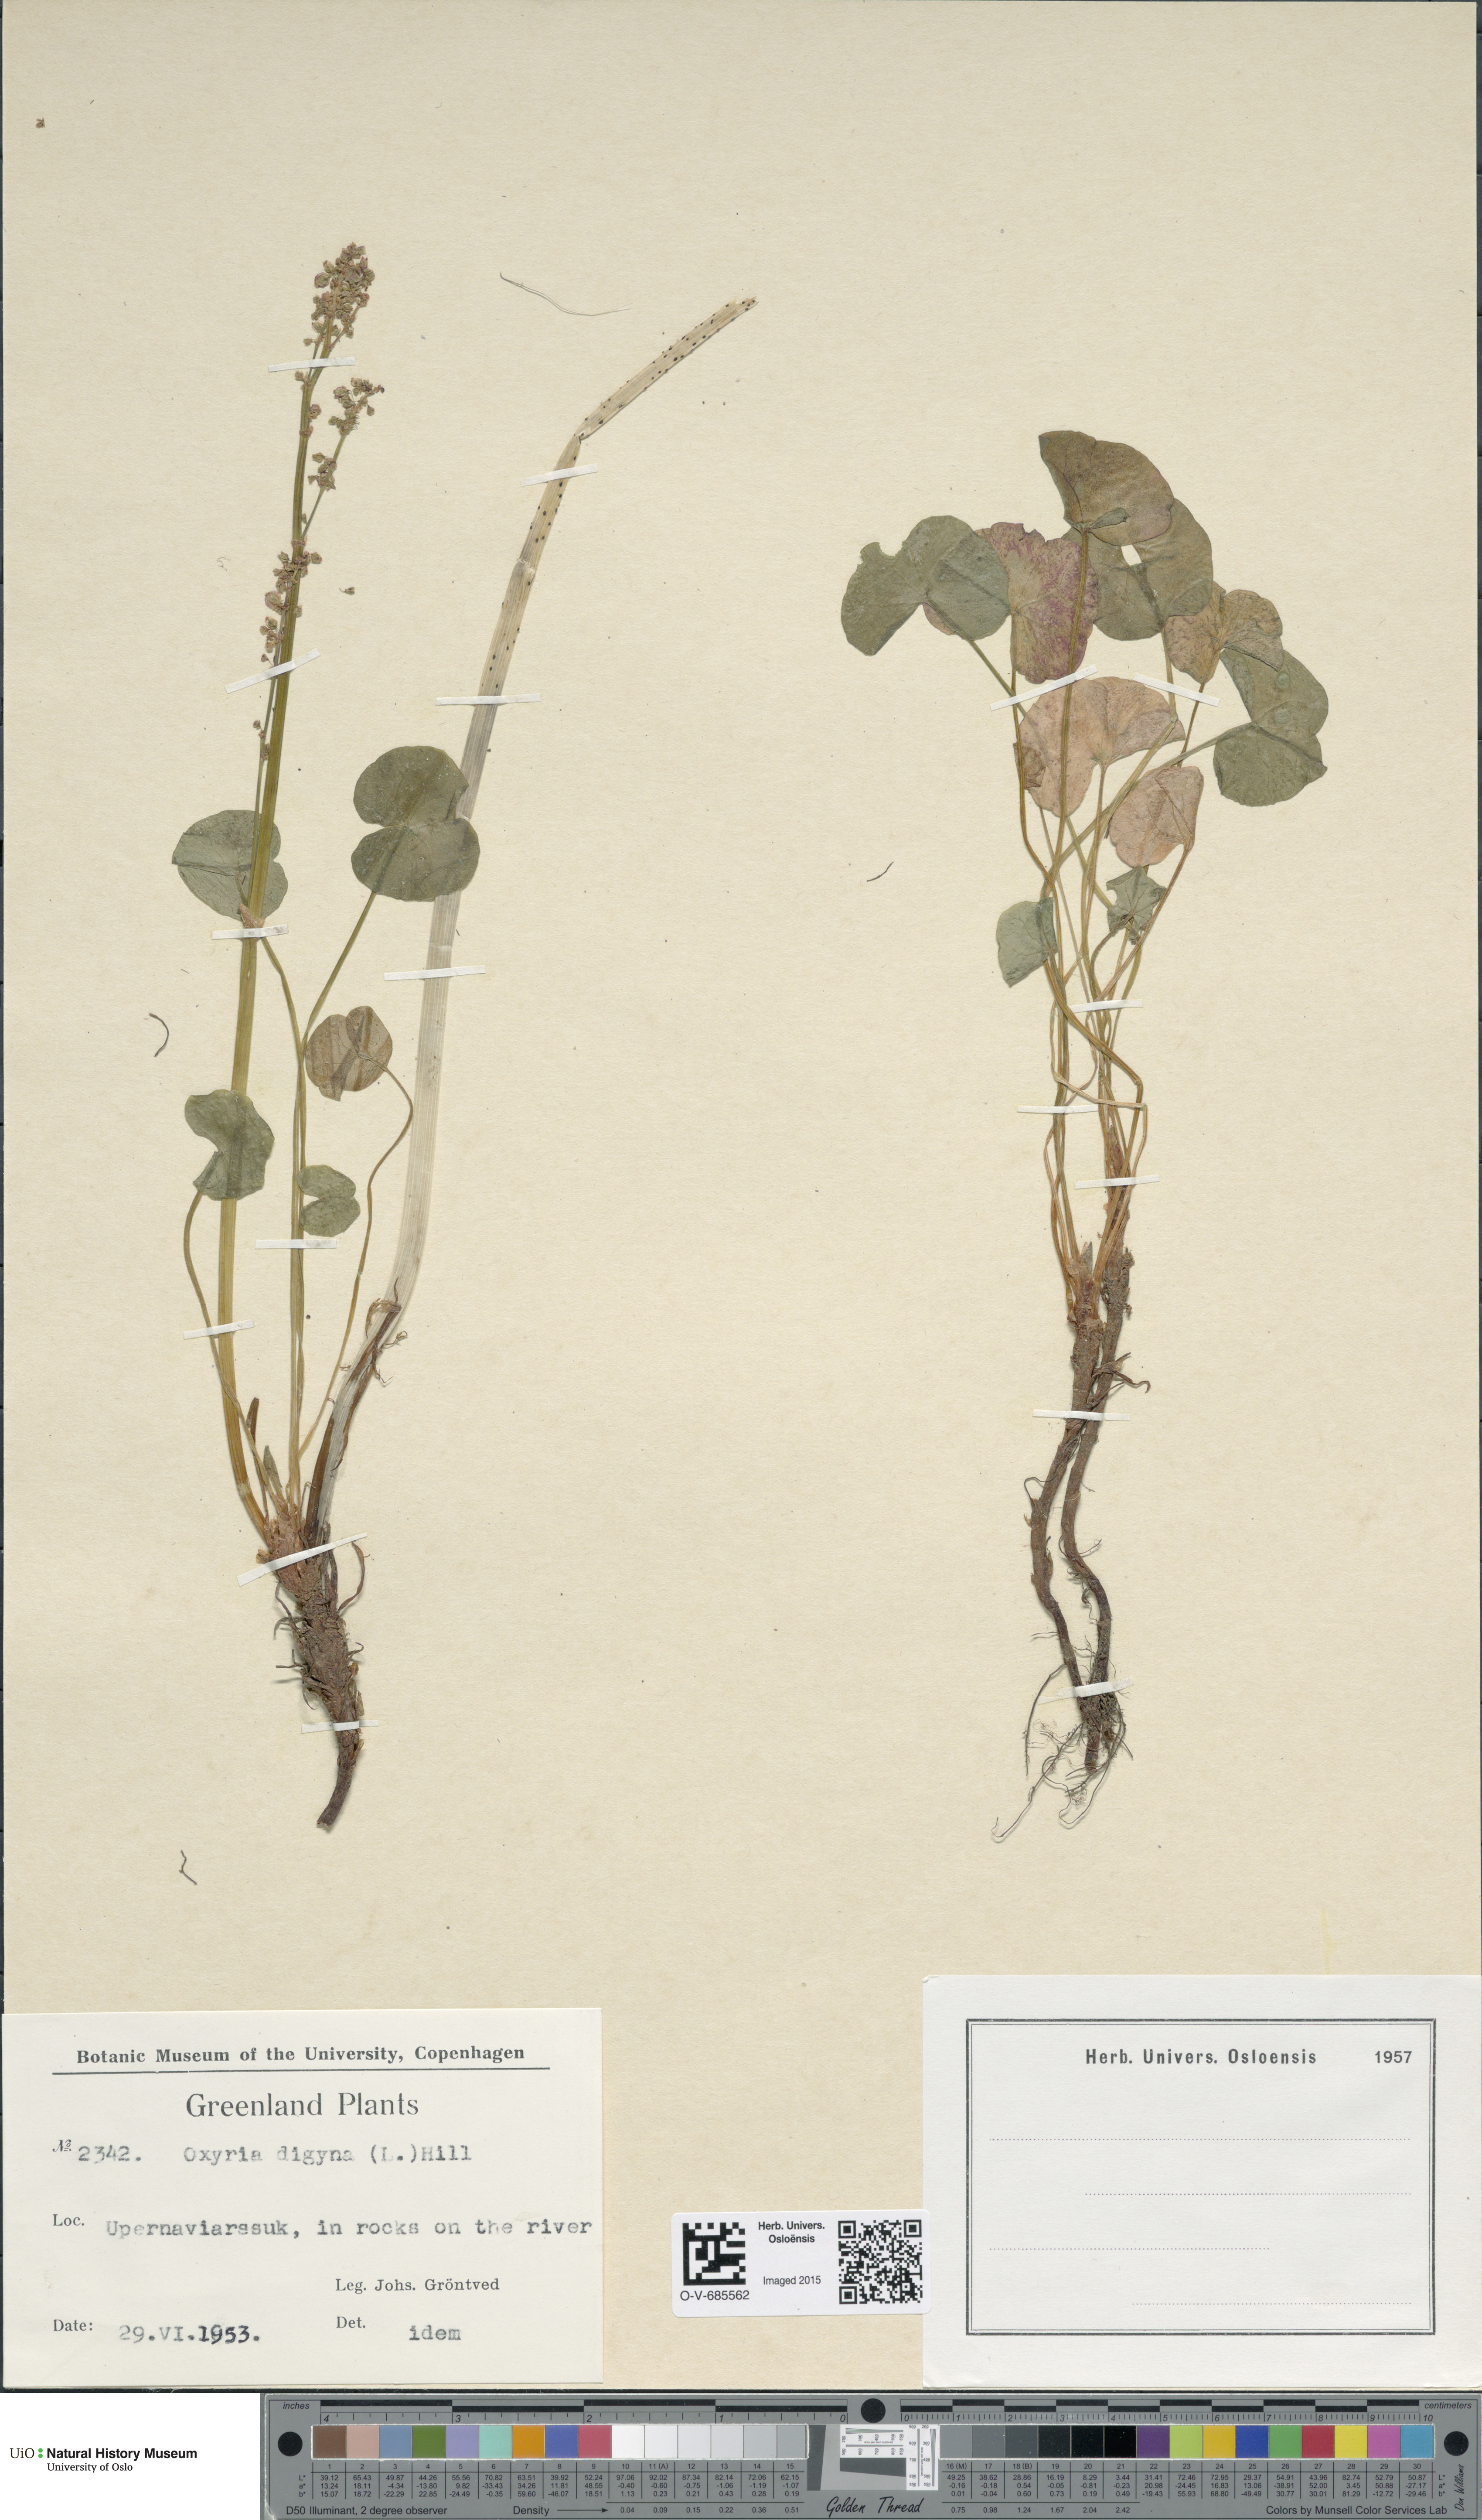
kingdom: Plantae
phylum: Tracheophyta
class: Magnoliopsida
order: Caryophyllales
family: Polygonaceae
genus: Oxyria
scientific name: Oxyria digyna
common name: Alpine mountain-sorrel
